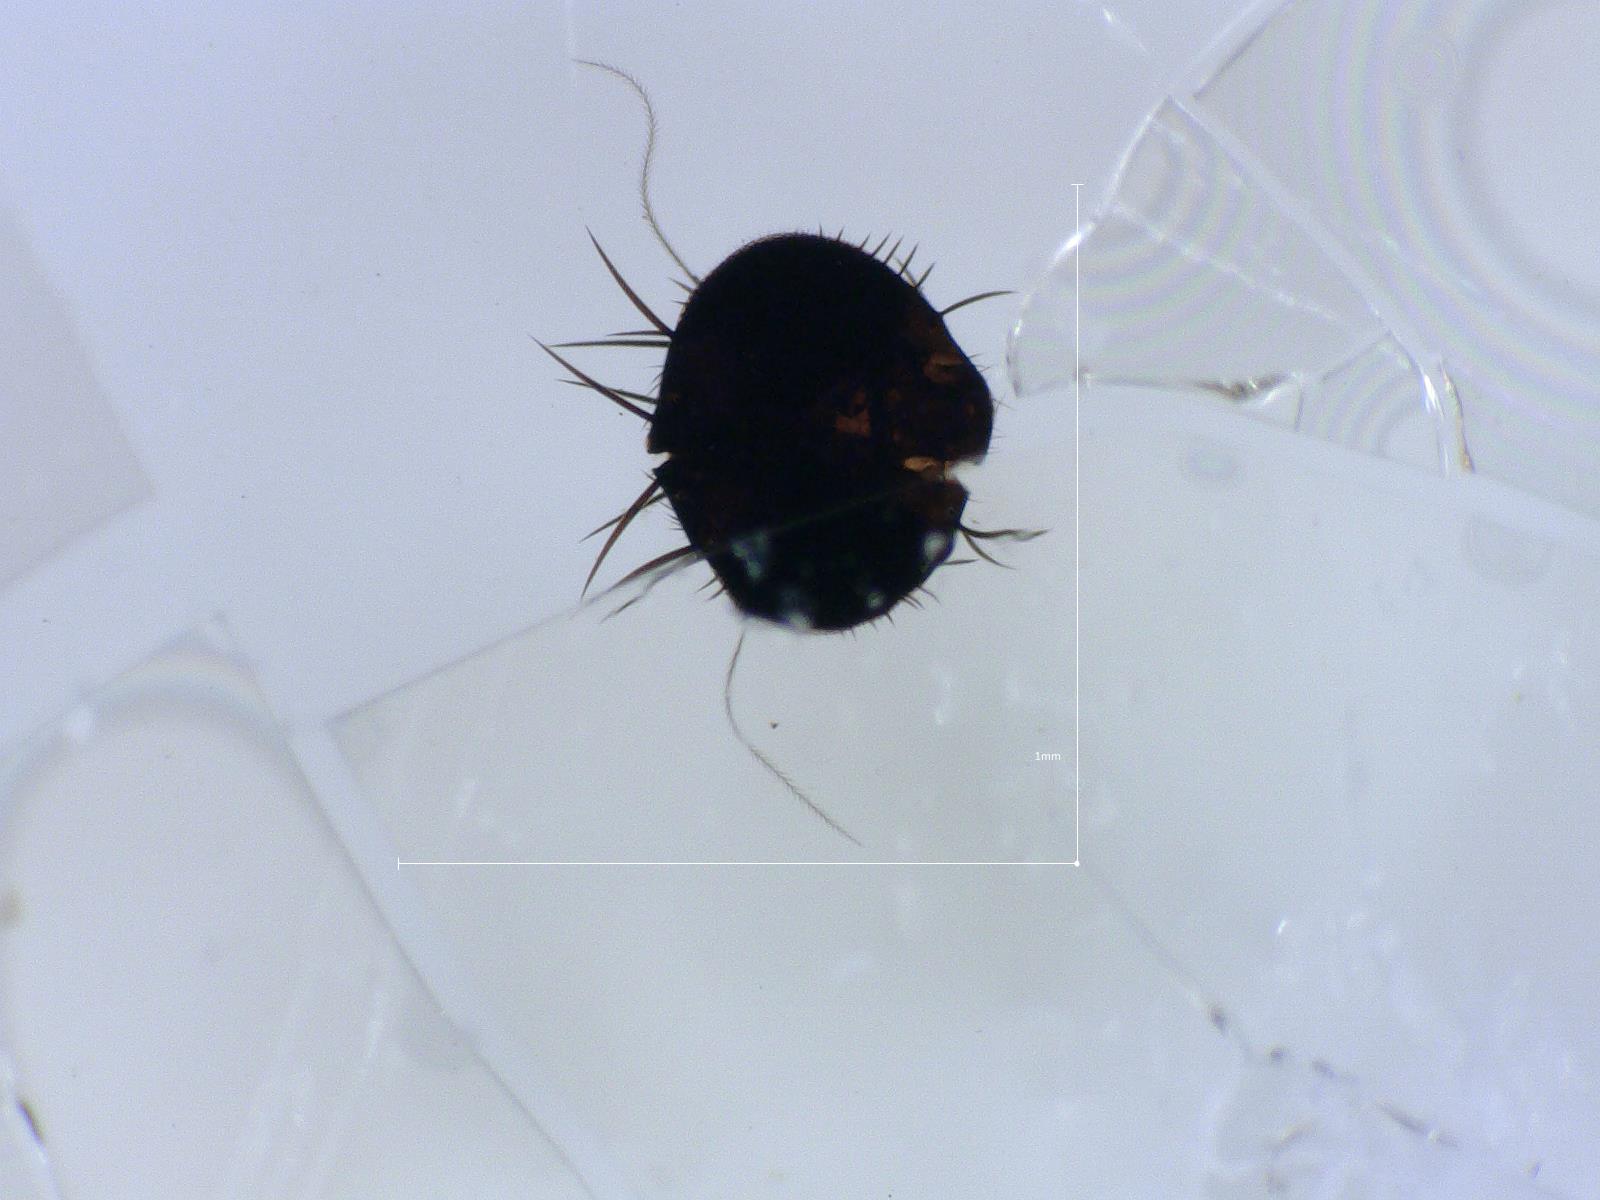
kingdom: Animalia
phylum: Arthropoda
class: Insecta
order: Diptera
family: Phoridae
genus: Megaselia
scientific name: Megaselia longicostalis
